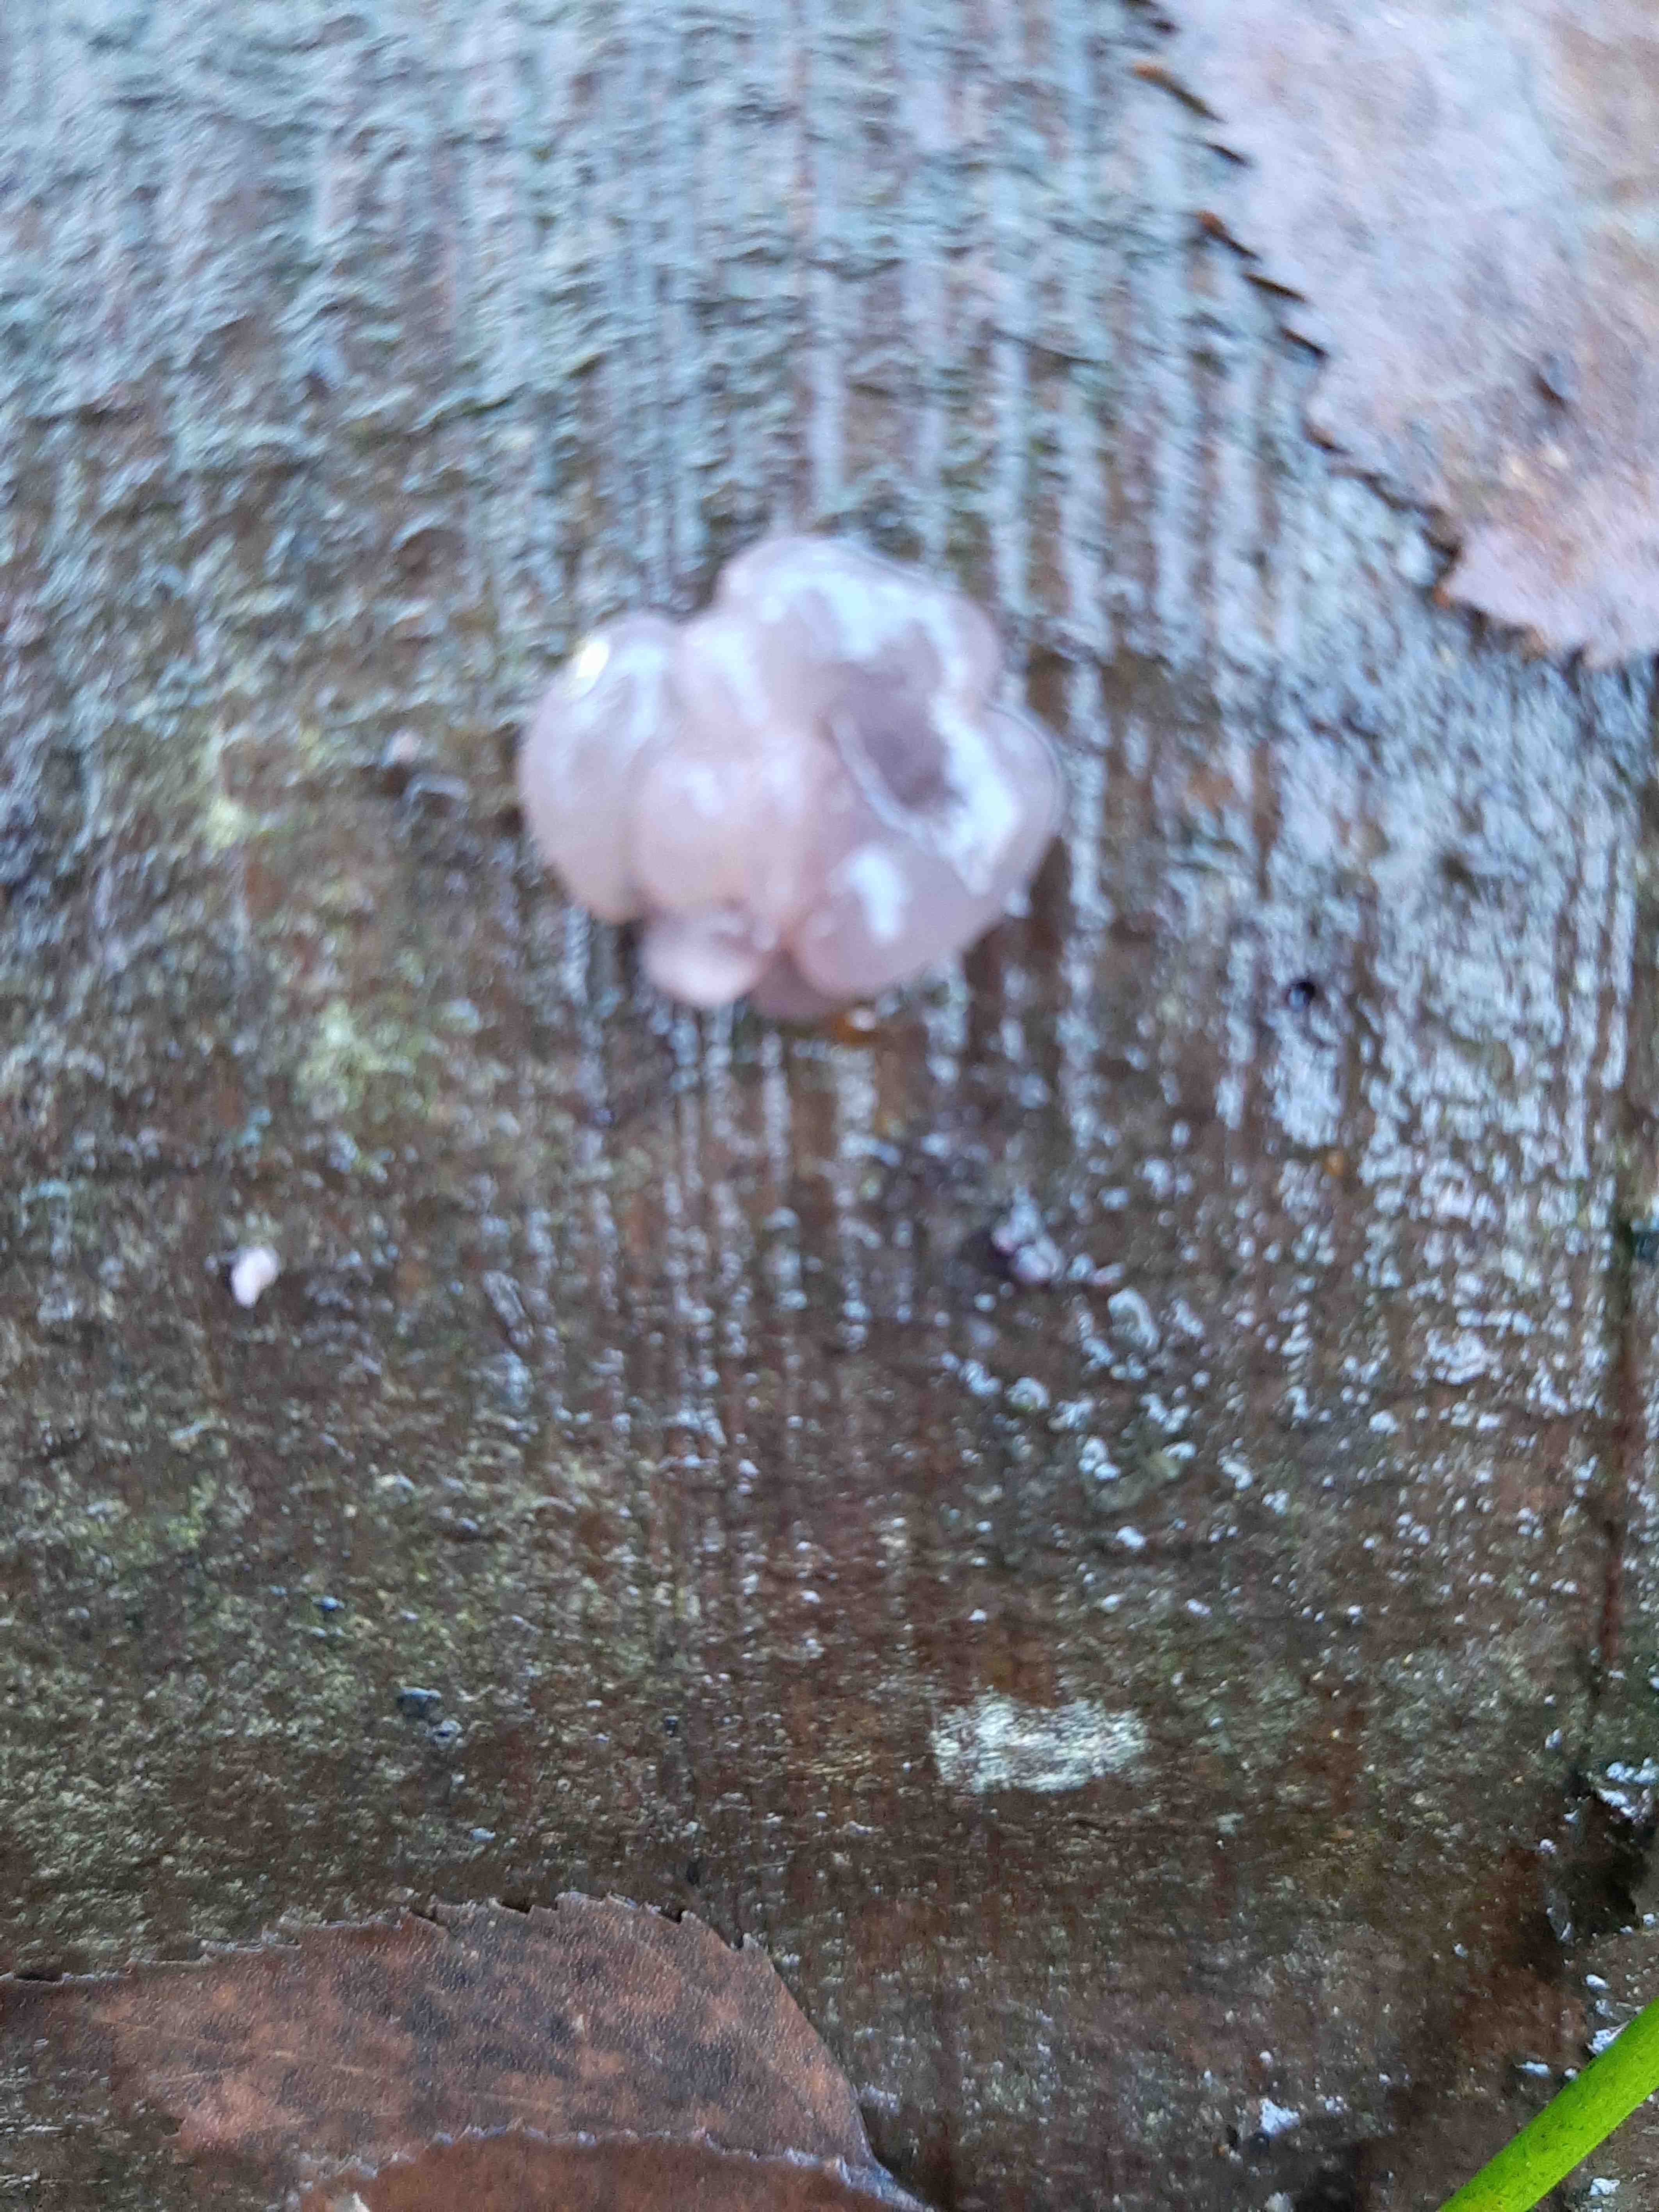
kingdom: Fungi
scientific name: Fungi
